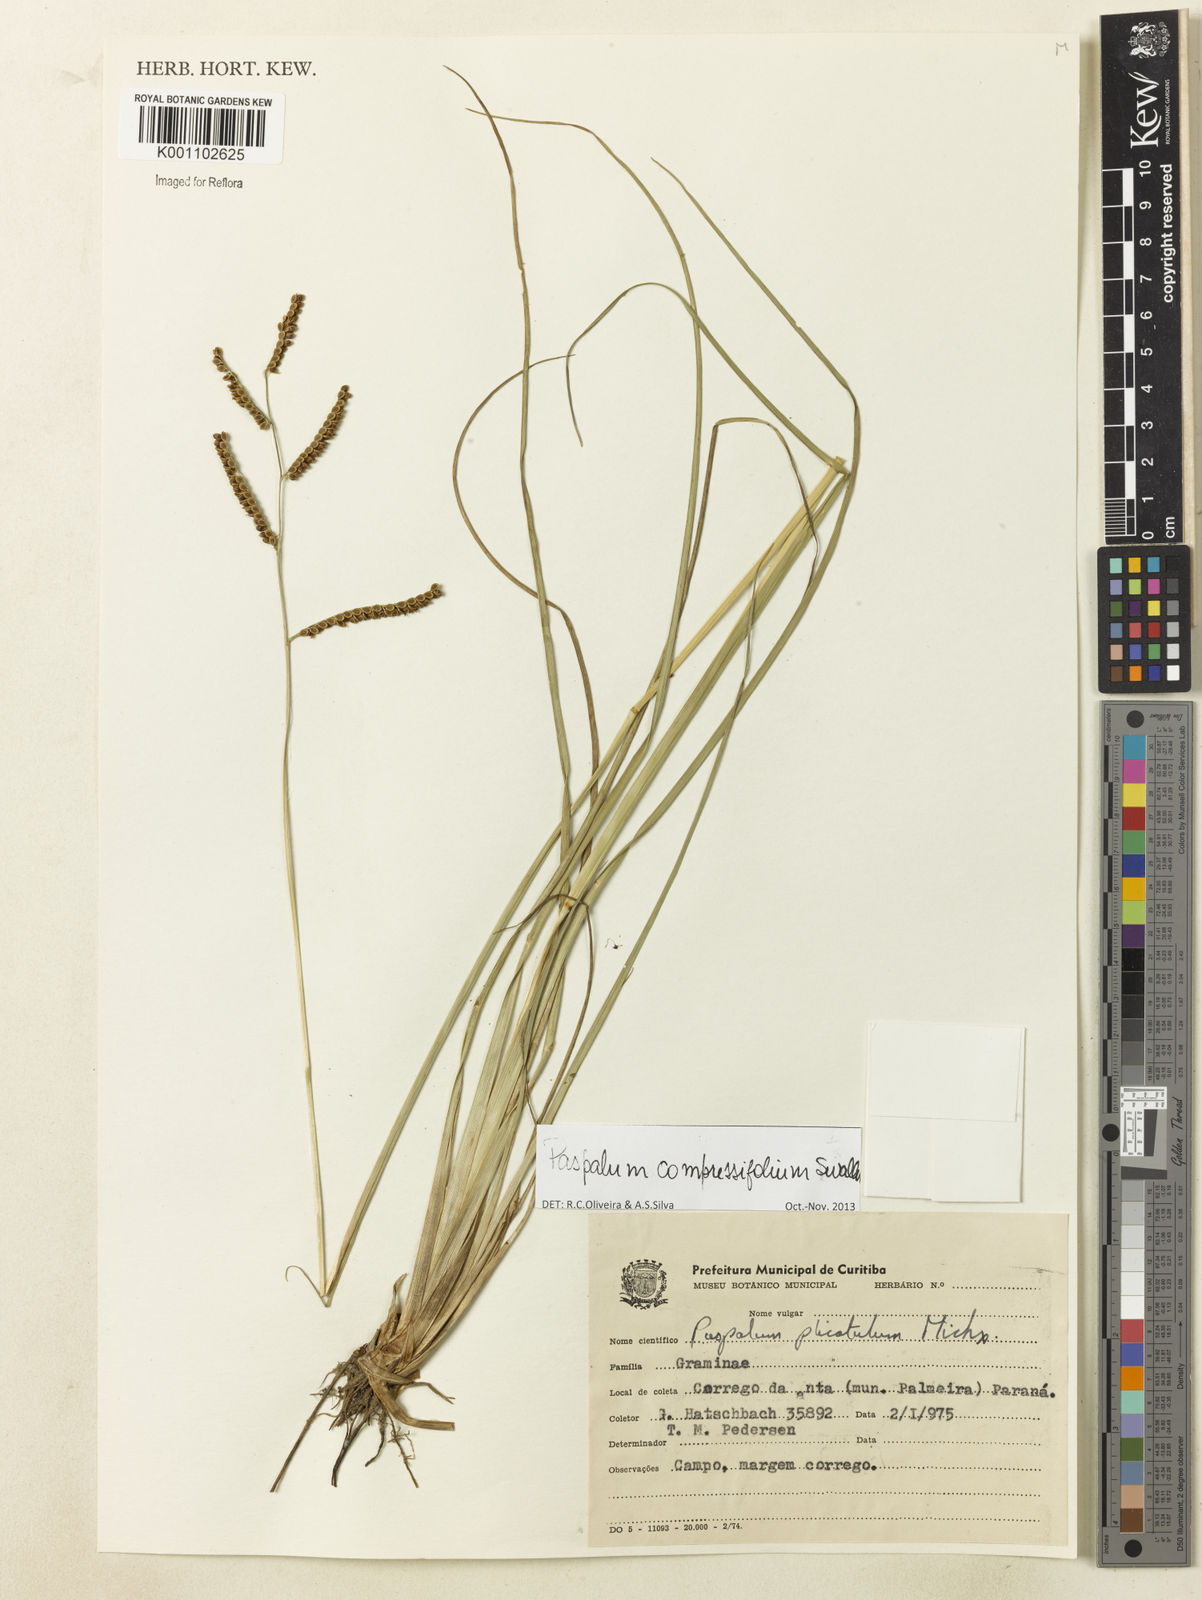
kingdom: Plantae
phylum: Tracheophyta
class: Liliopsida
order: Poales
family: Poaceae
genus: Paspalum
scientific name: Paspalum
